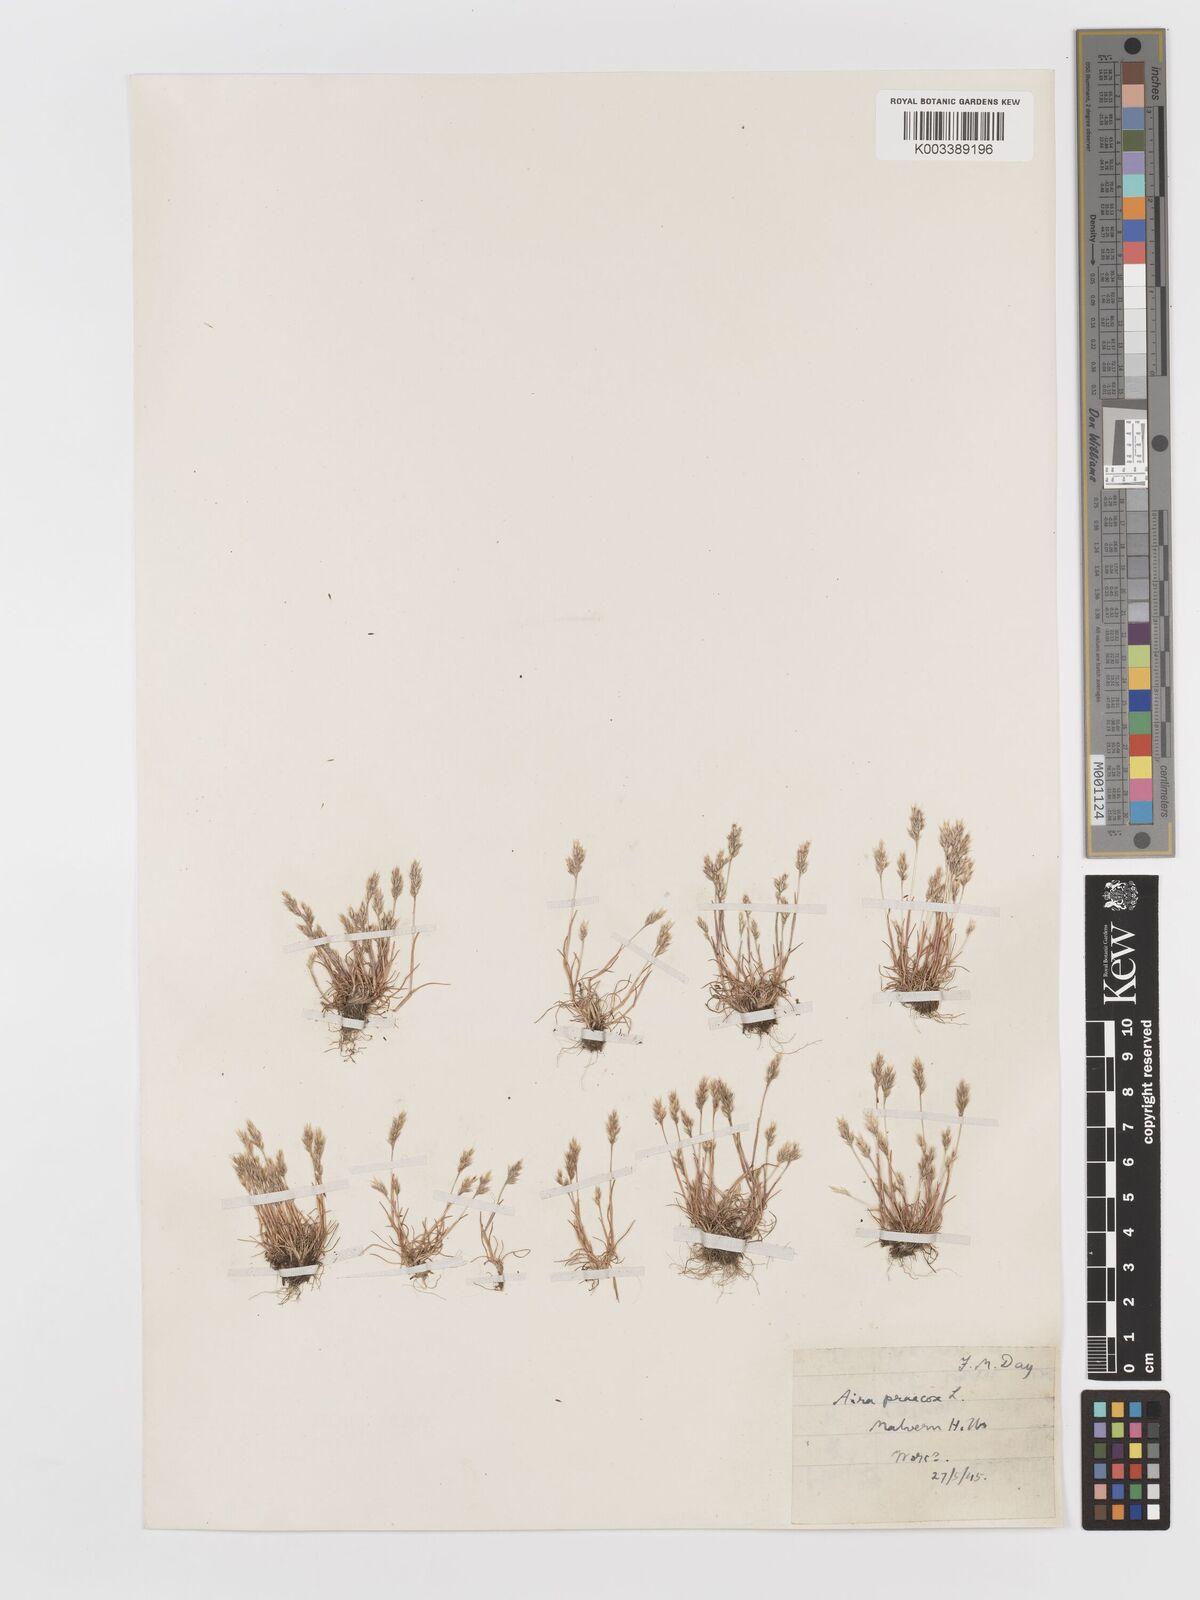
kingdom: Plantae
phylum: Tracheophyta
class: Liliopsida
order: Poales
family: Poaceae
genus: Aira
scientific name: Aira praecox
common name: Early hair-grass
